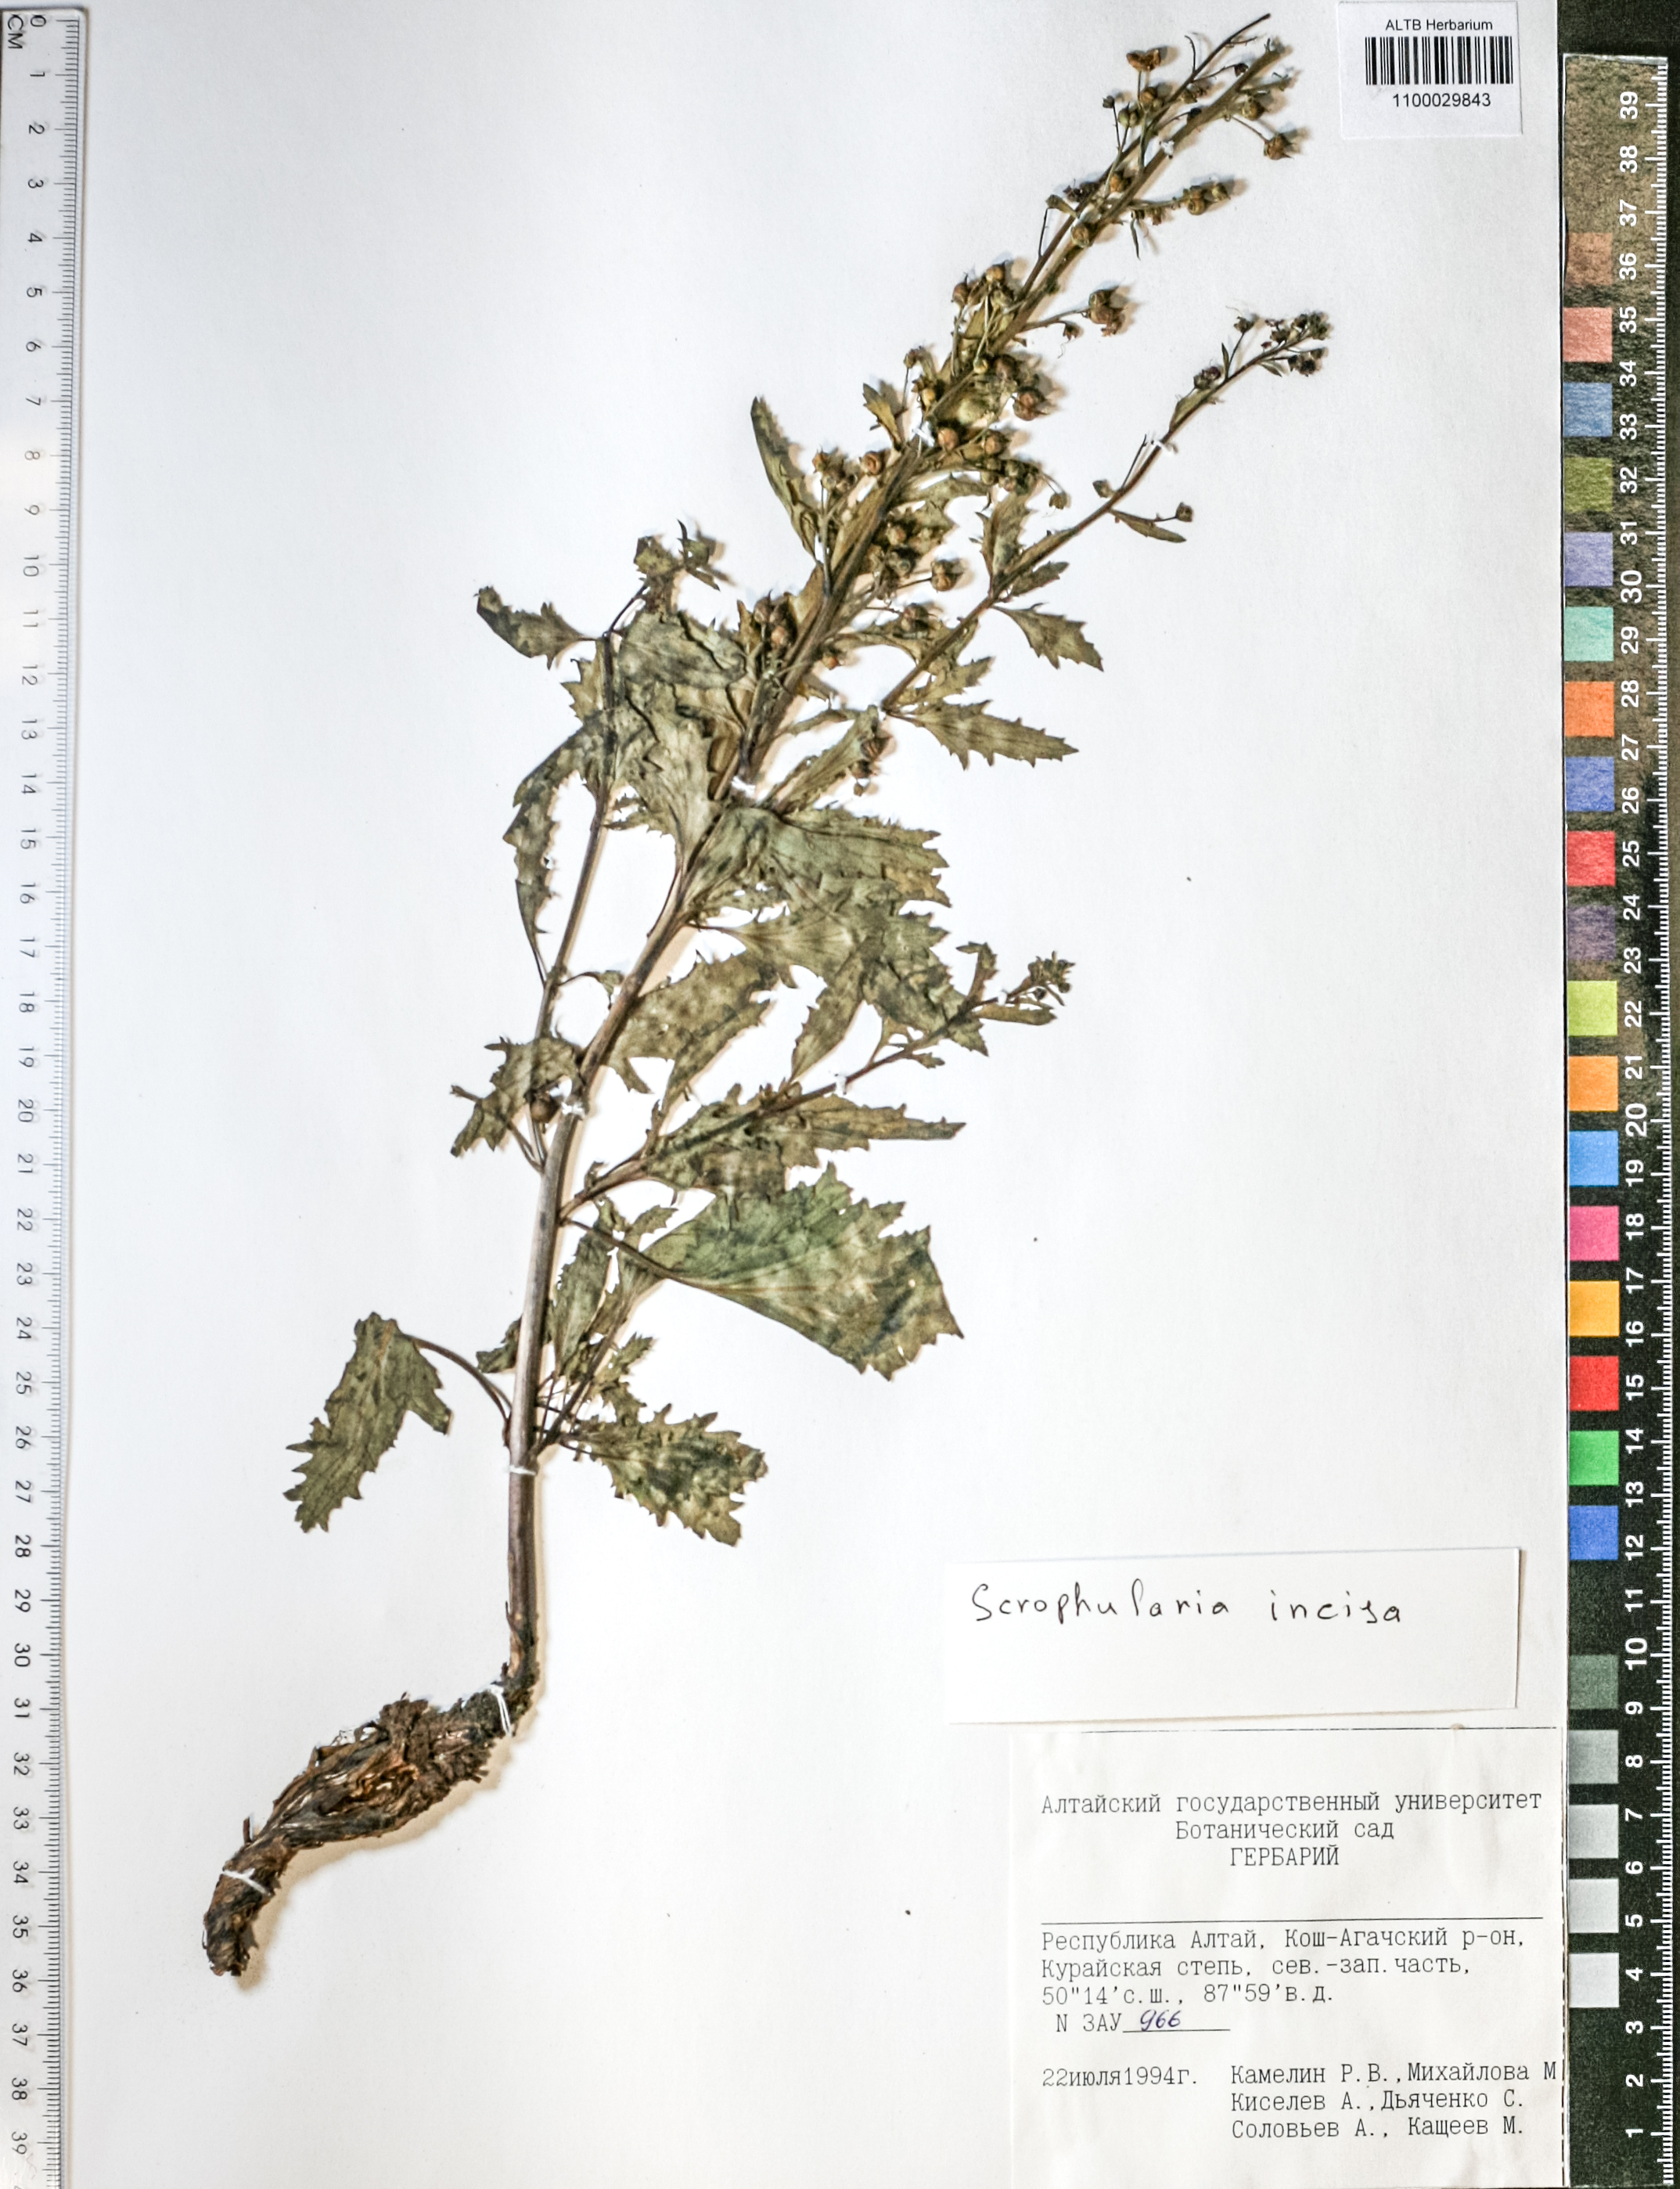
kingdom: Plantae
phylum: Tracheophyta
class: Magnoliopsida
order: Lamiales
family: Scrophulariaceae
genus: Scrophularia
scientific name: Scrophularia incisa
